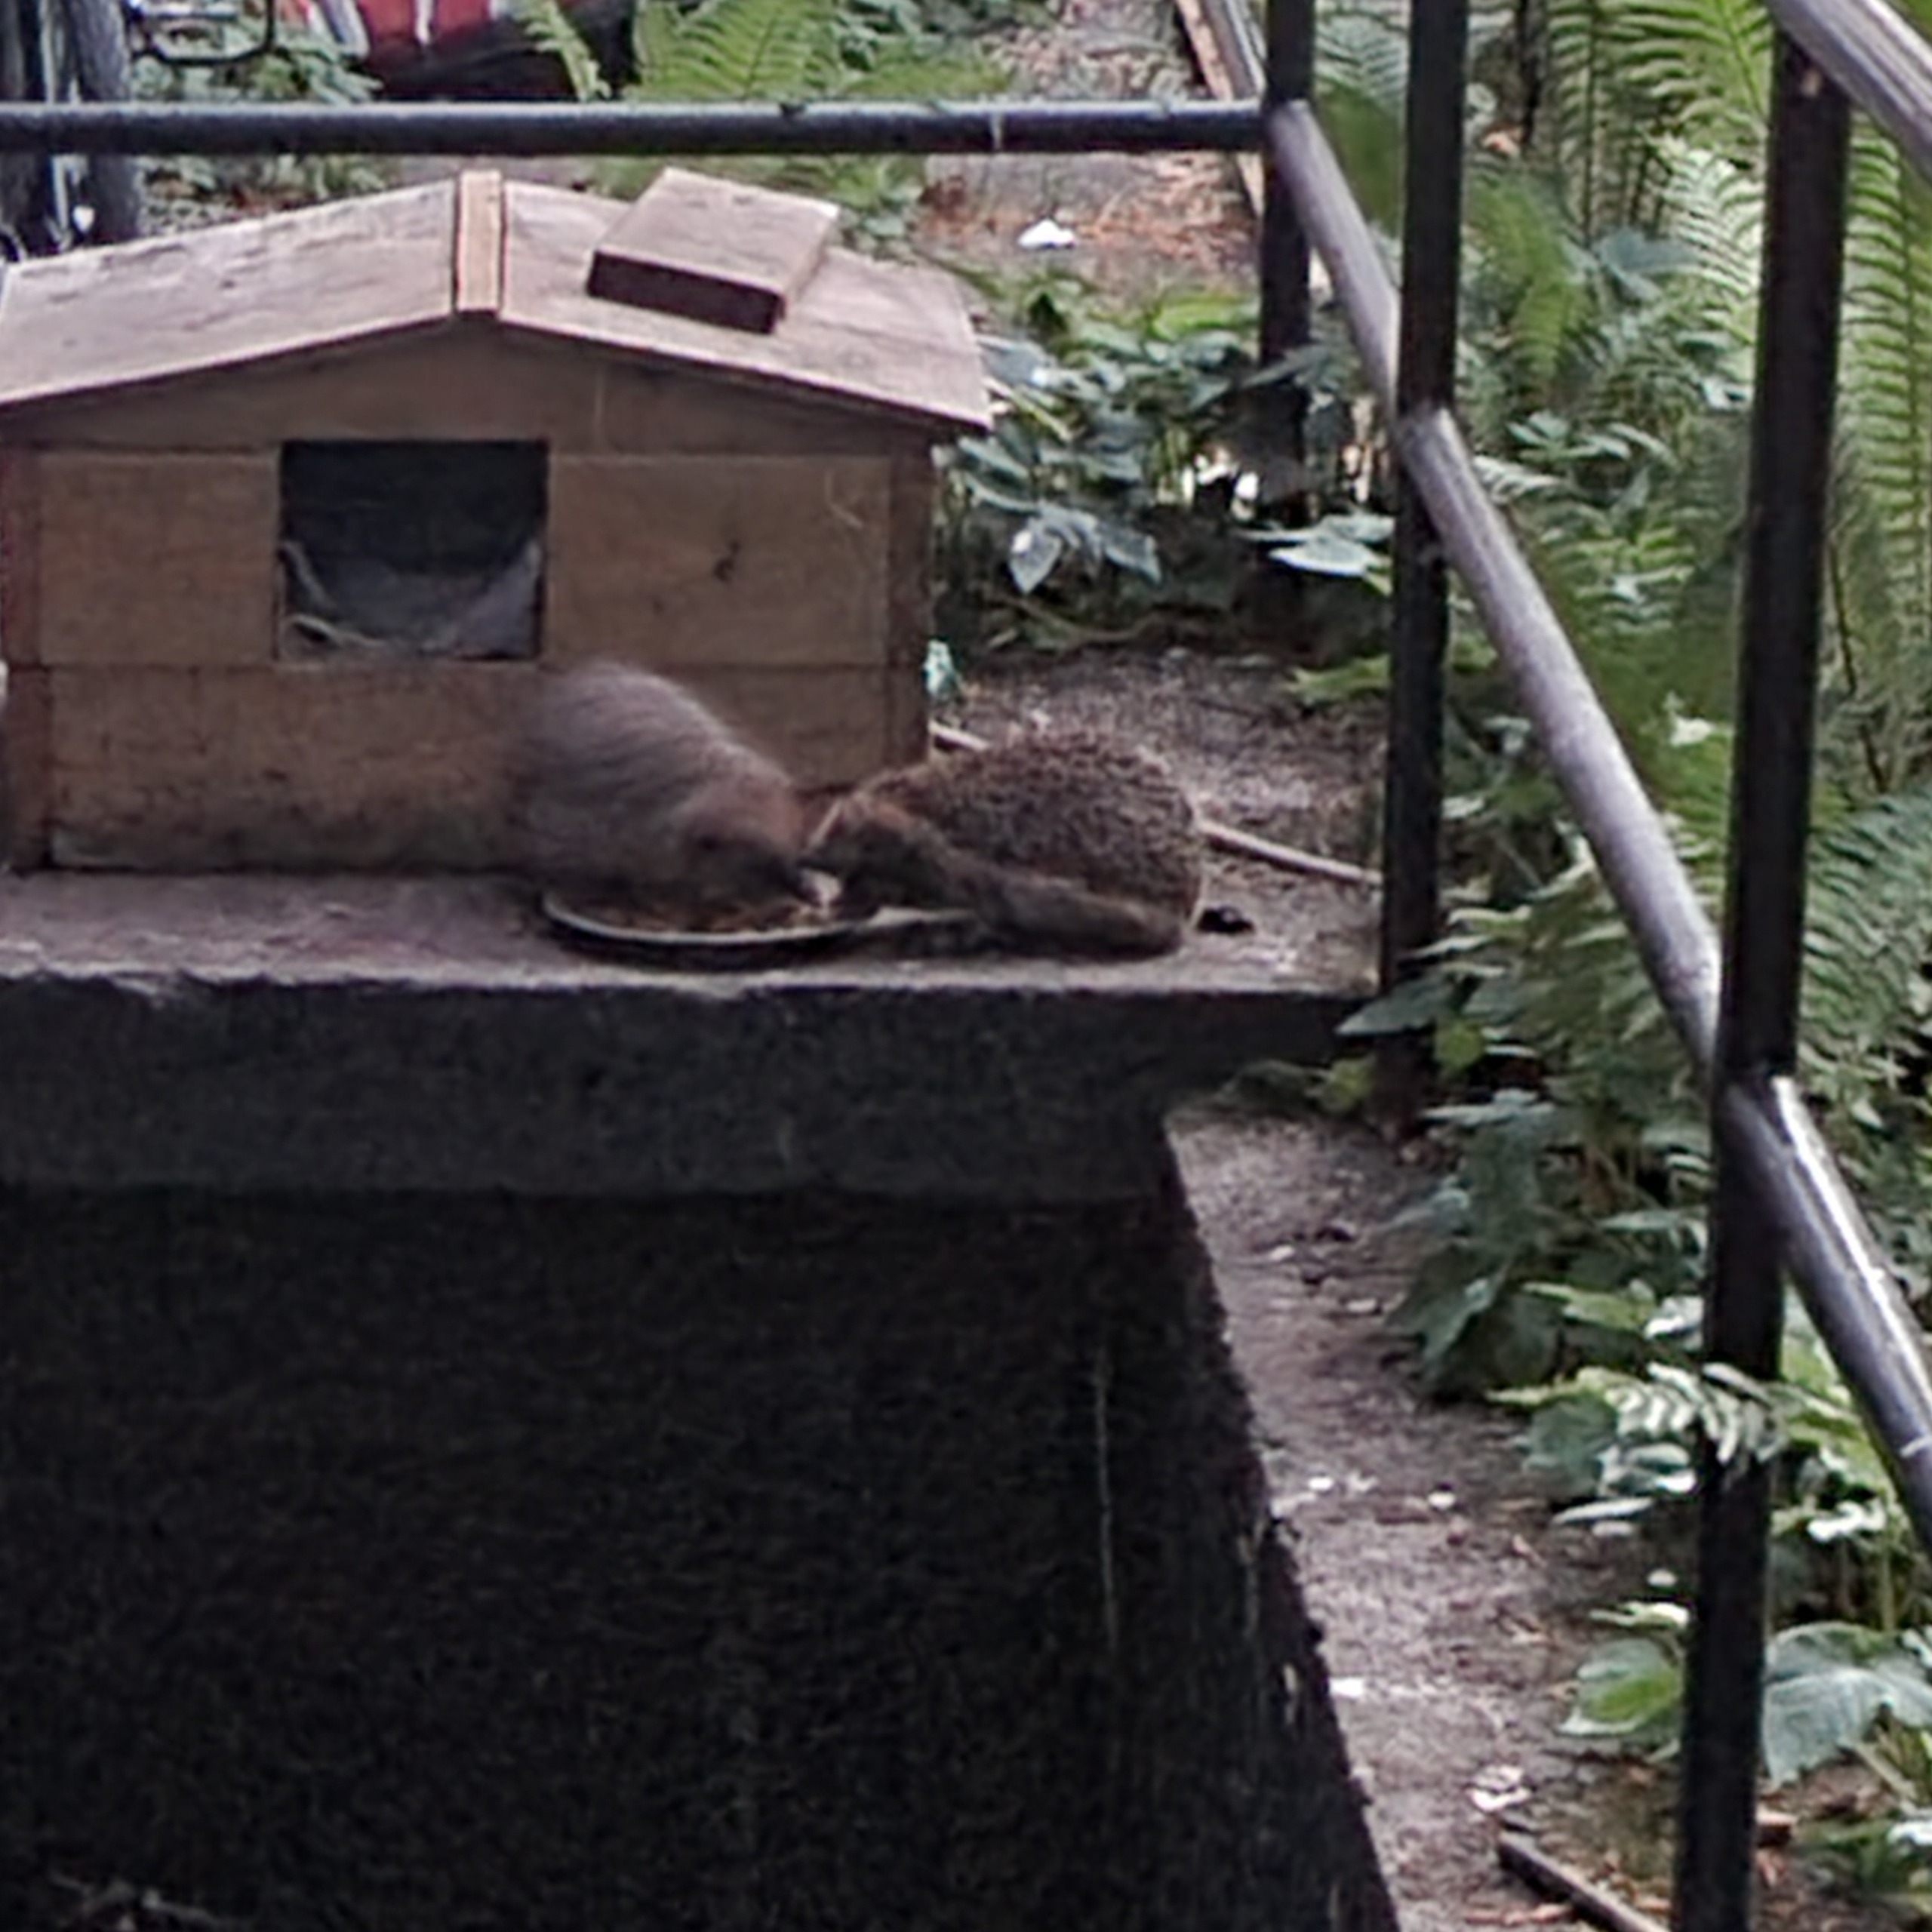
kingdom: Animalia
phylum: Chordata
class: Mammalia
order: Erinaceomorpha
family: Erinaceidae
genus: Erinaceus
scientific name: Erinaceus europaeus
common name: Pindsvin
